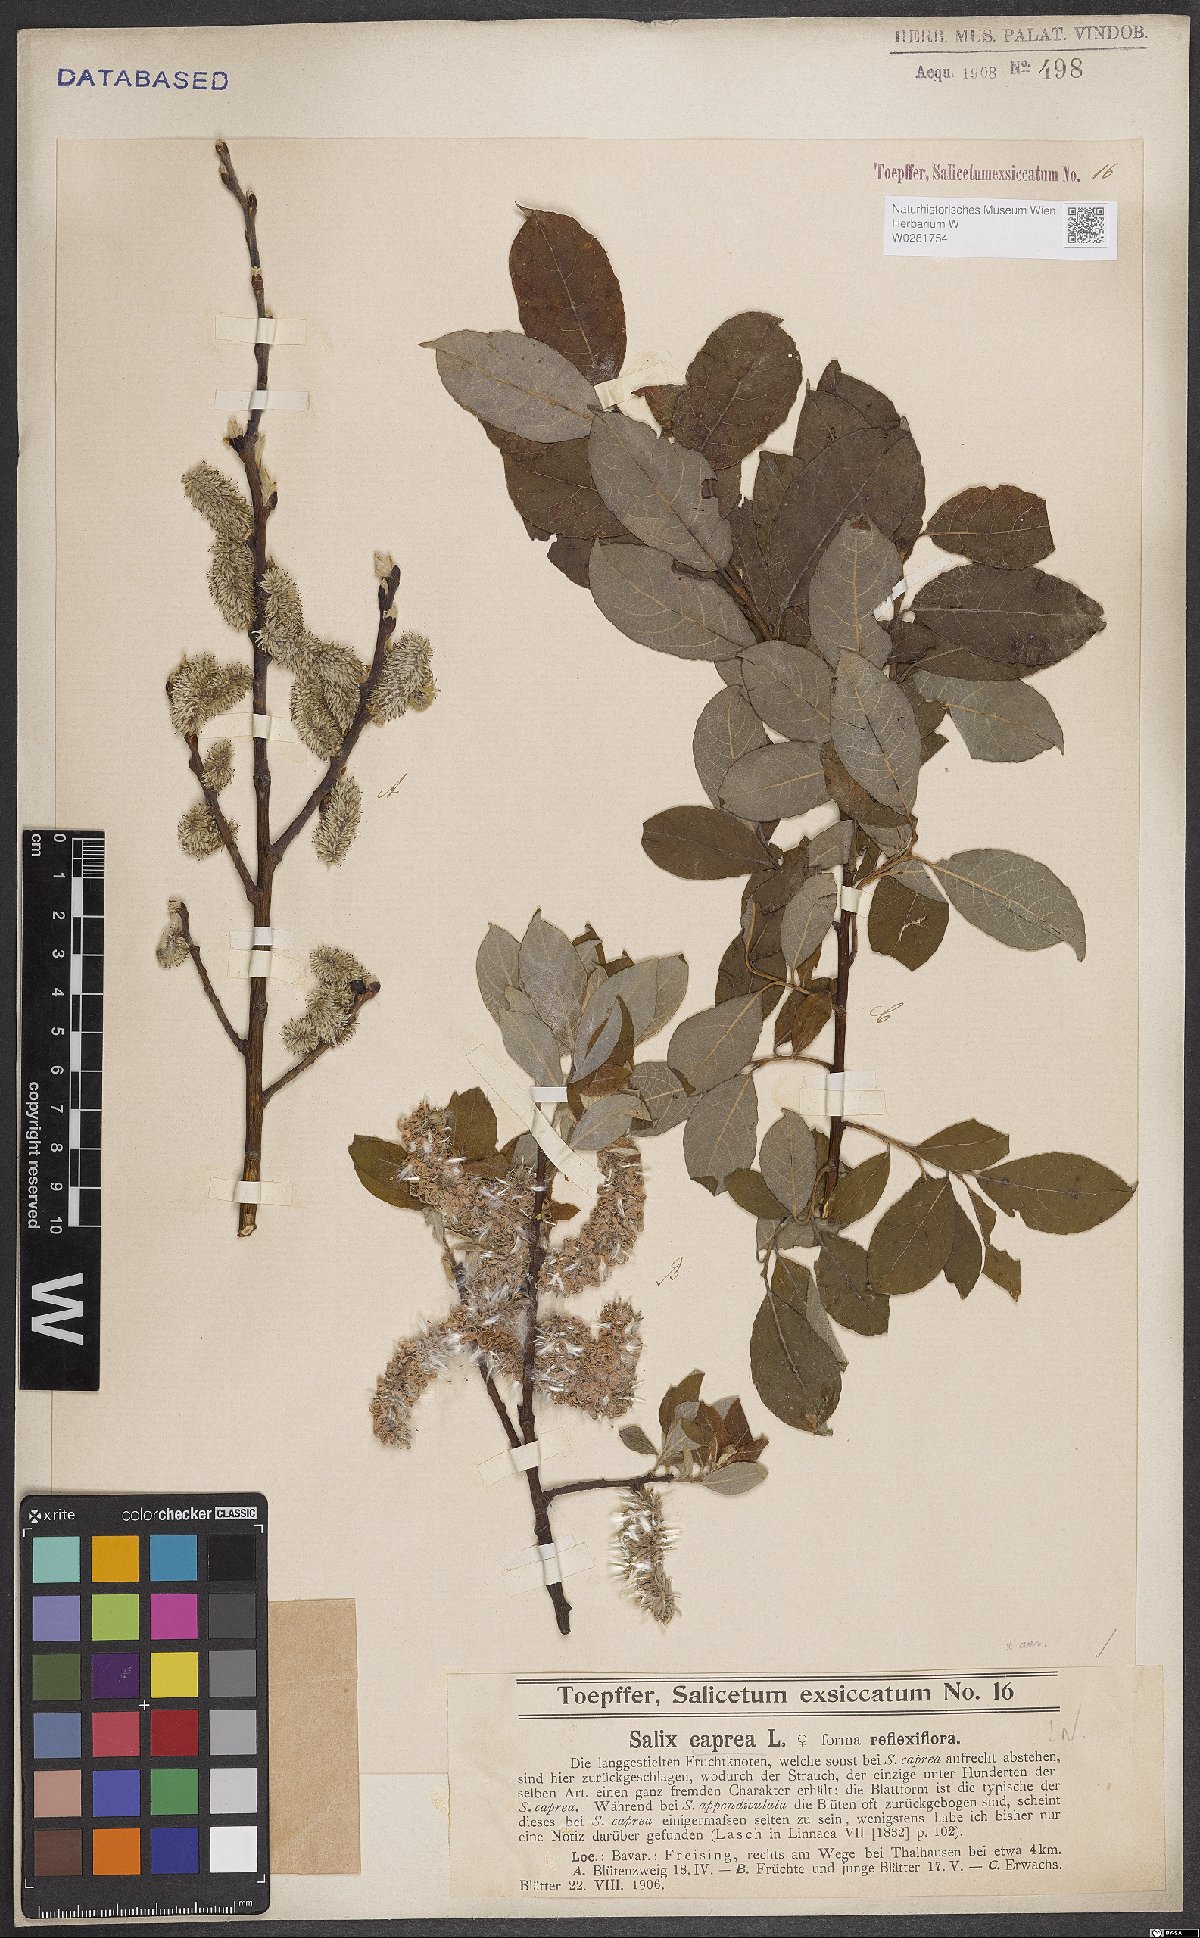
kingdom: Plantae
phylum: Tracheophyta
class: Magnoliopsida
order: Malpighiales
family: Salicaceae
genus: Salix
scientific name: Salix caprea
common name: Goat willow
